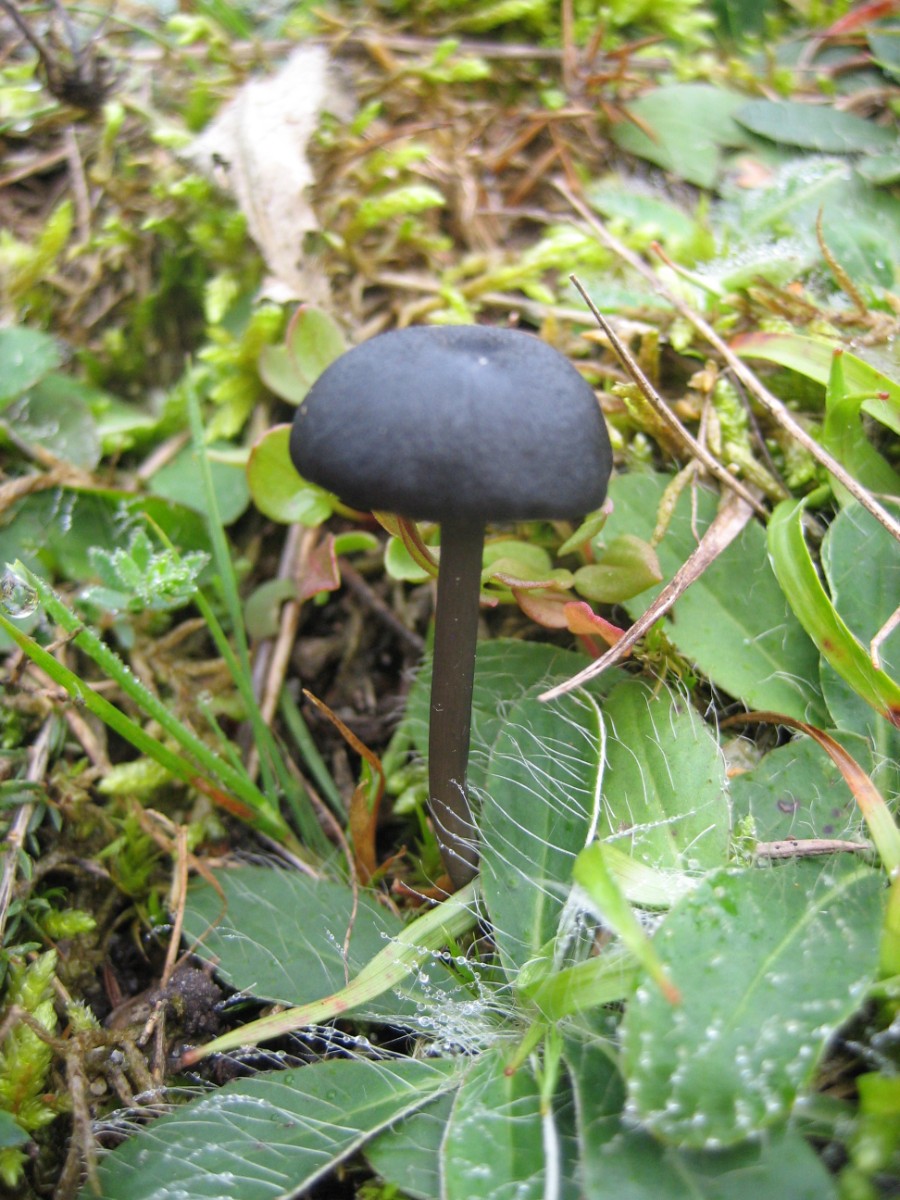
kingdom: Fungi
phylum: Basidiomycota
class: Agaricomycetes
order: Agaricales
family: Entolomataceae
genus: Entoloma
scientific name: Entoloma chalybeum
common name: blåbladet rødblad
